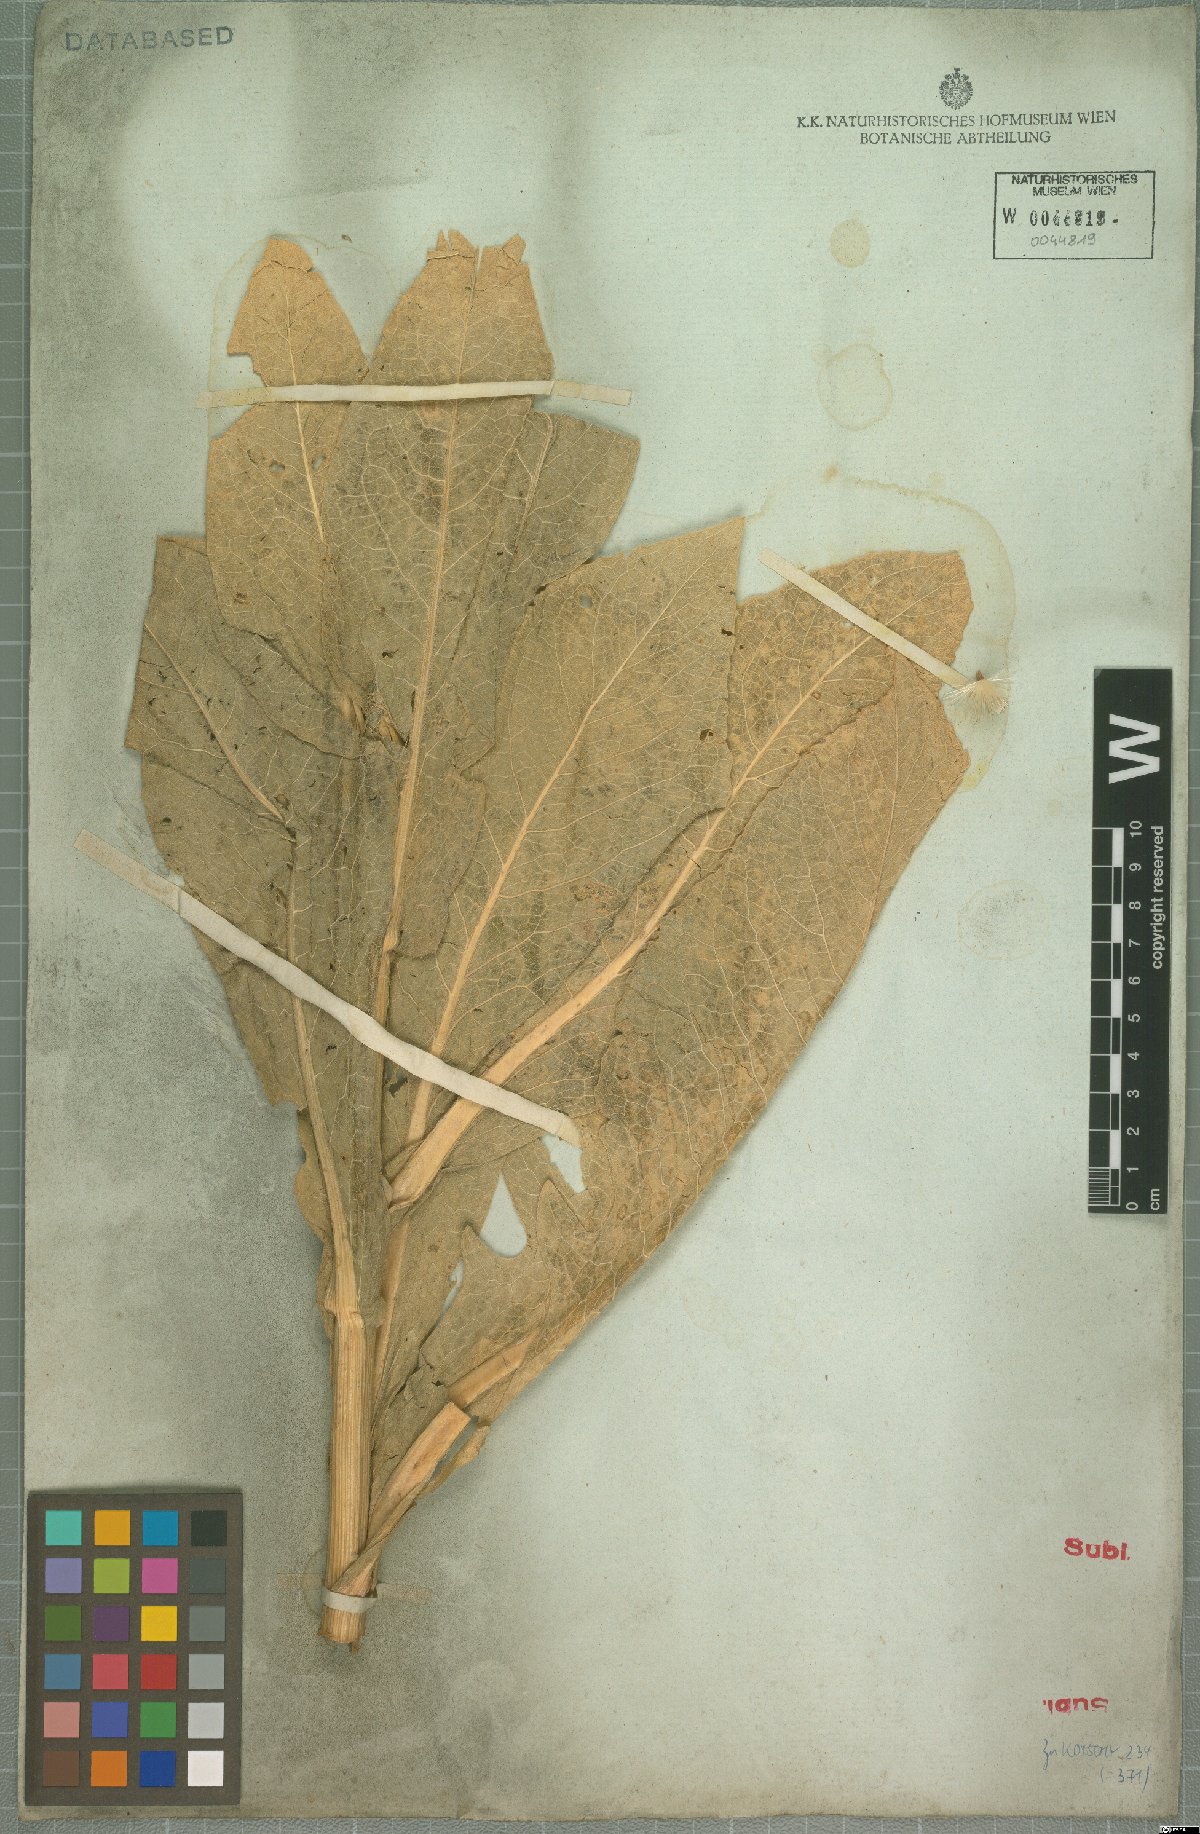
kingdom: Plantae
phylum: Tracheophyta
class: Magnoliopsida
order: Asterales
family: Asteraceae
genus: Centaurea
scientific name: Centaurea regia
